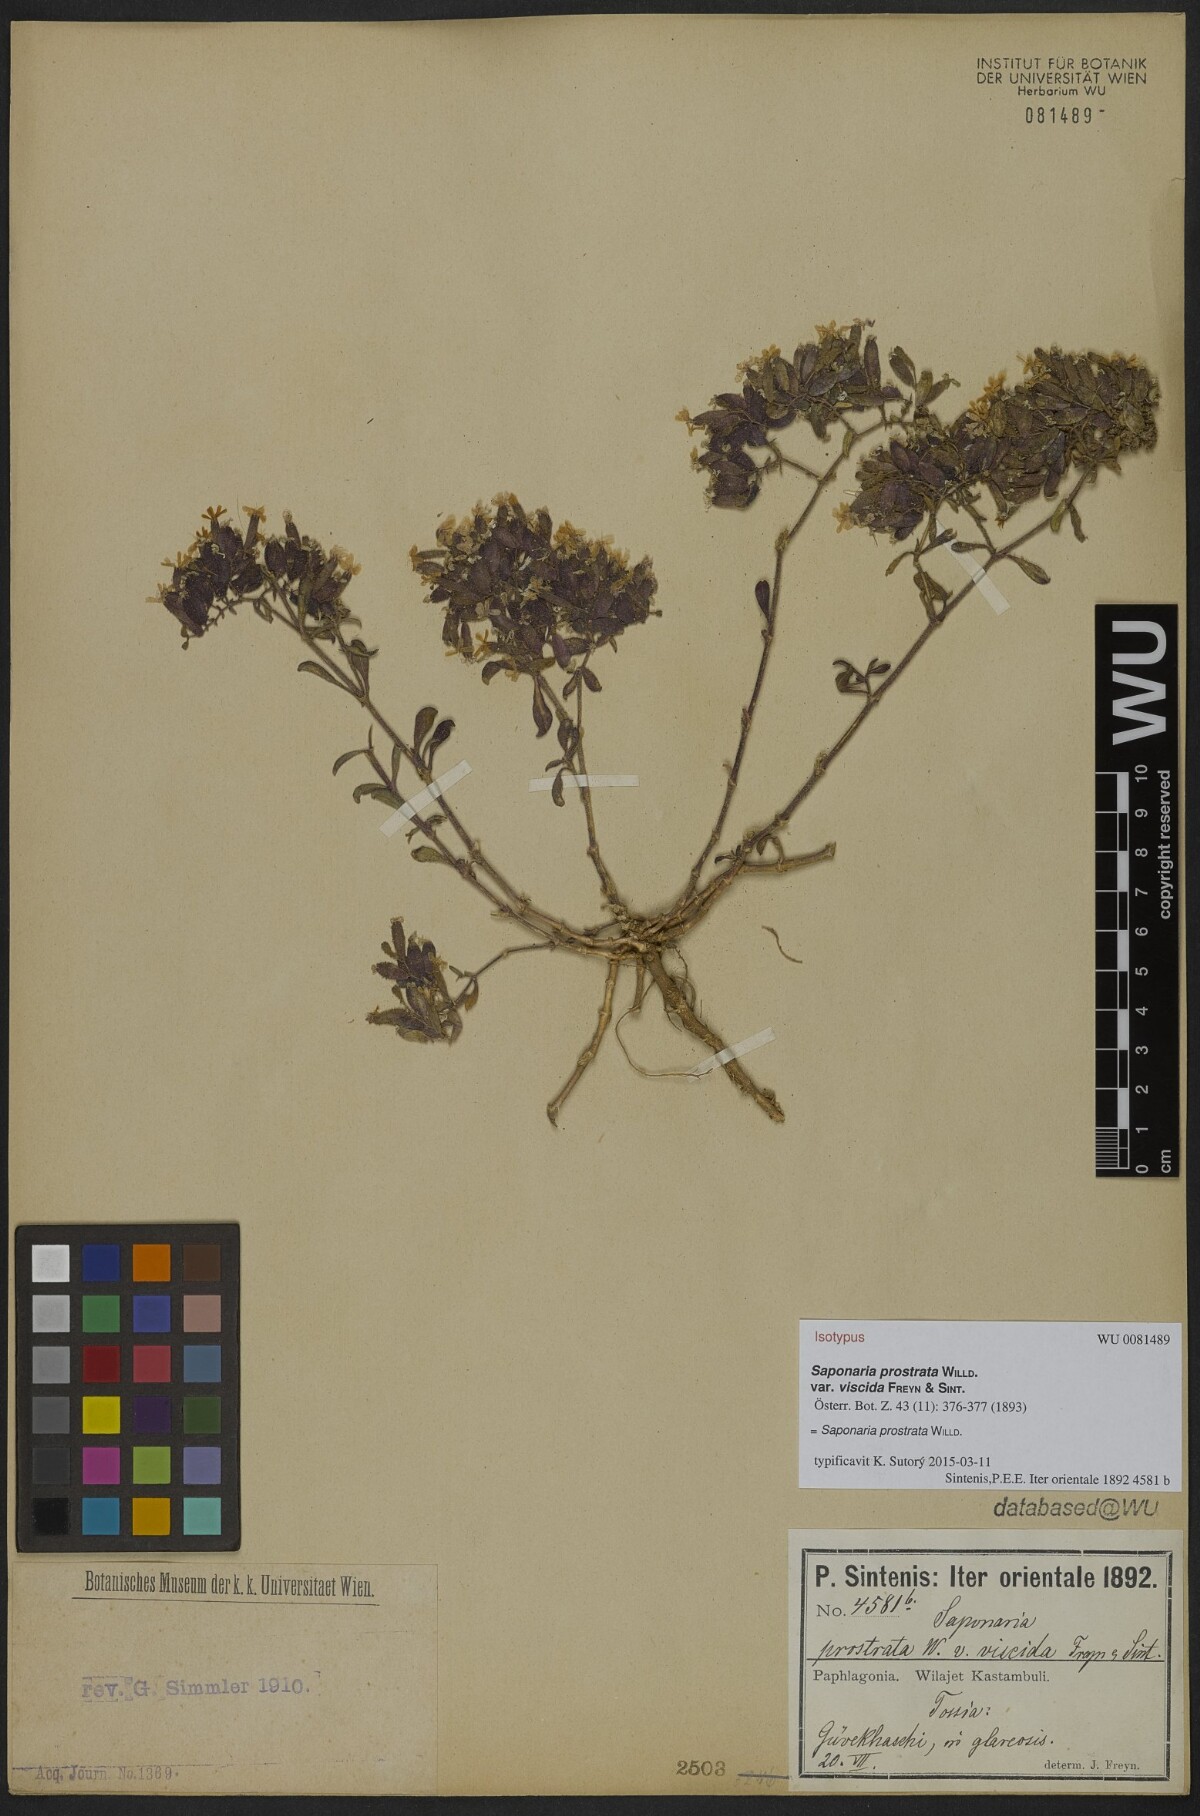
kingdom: Plantae
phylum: Tracheophyta
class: Magnoliopsida
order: Caryophyllales
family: Caryophyllaceae
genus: Saponaria
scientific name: Saponaria prostrata
